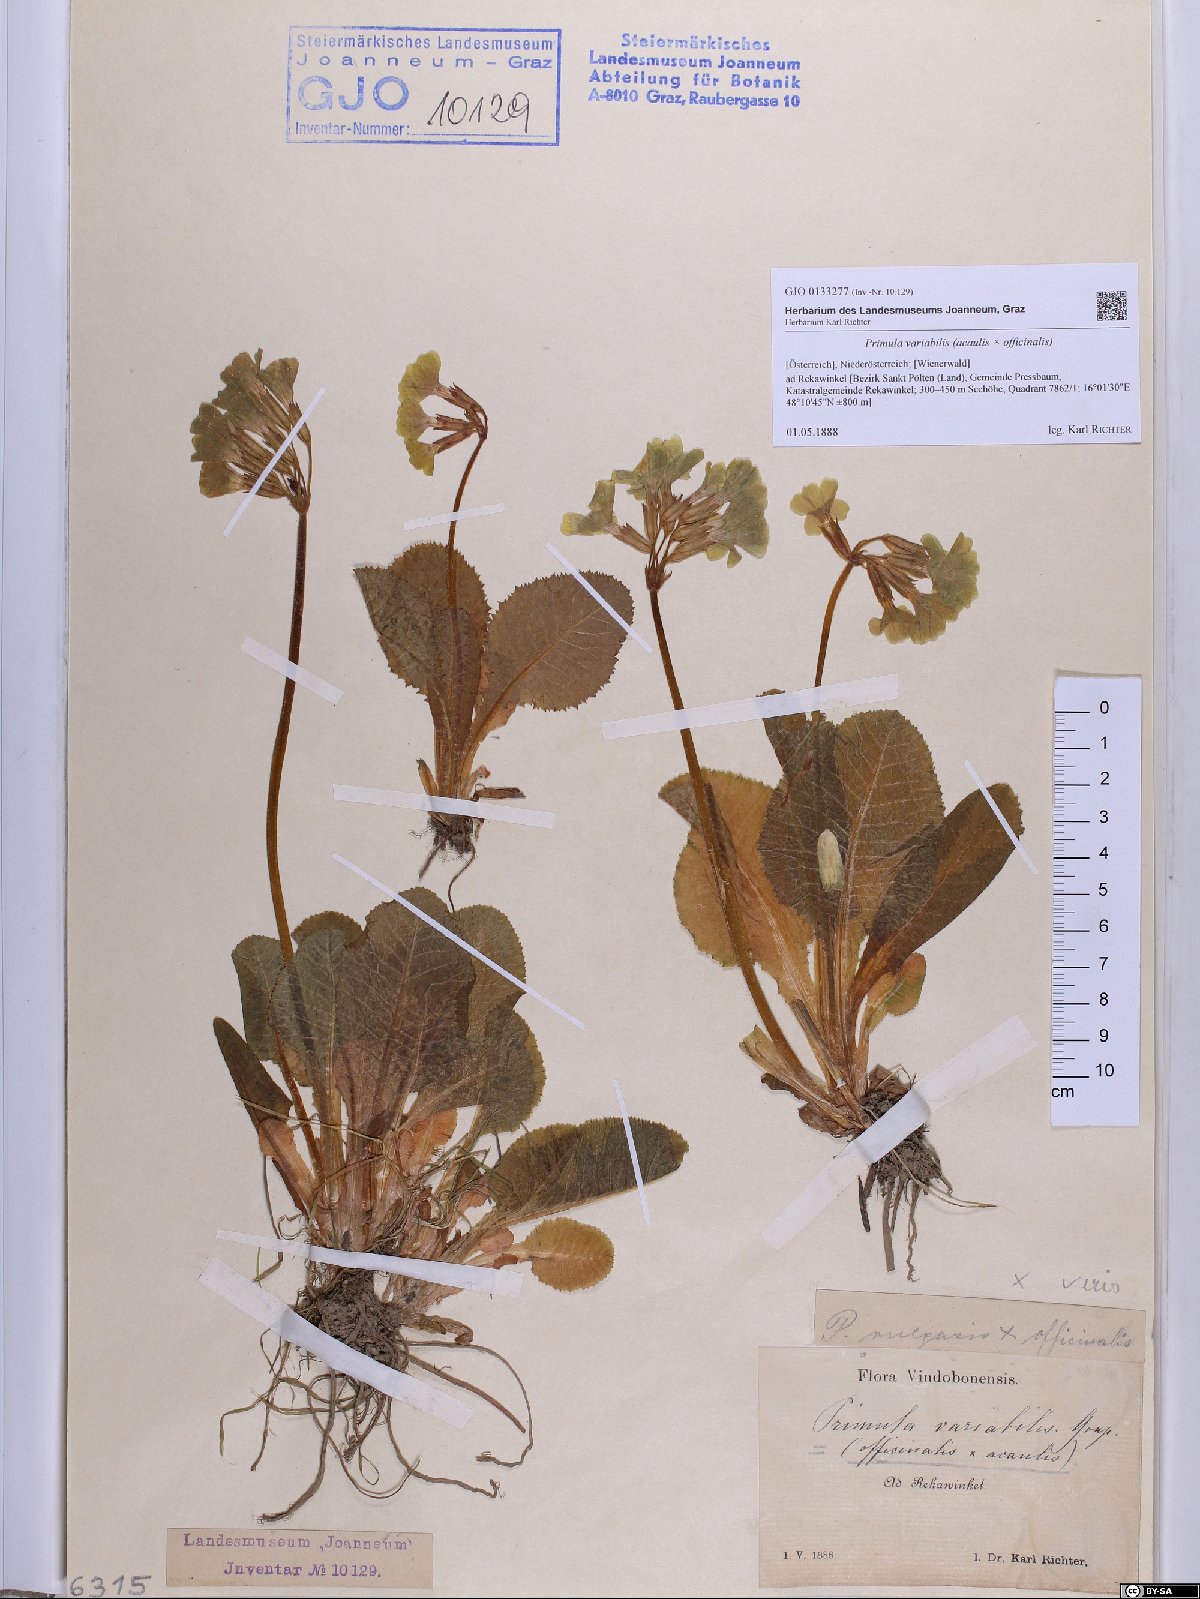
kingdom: Plantae
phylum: Tracheophyta
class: Magnoliopsida
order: Ericales
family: Primulaceae
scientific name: Primulaceae
